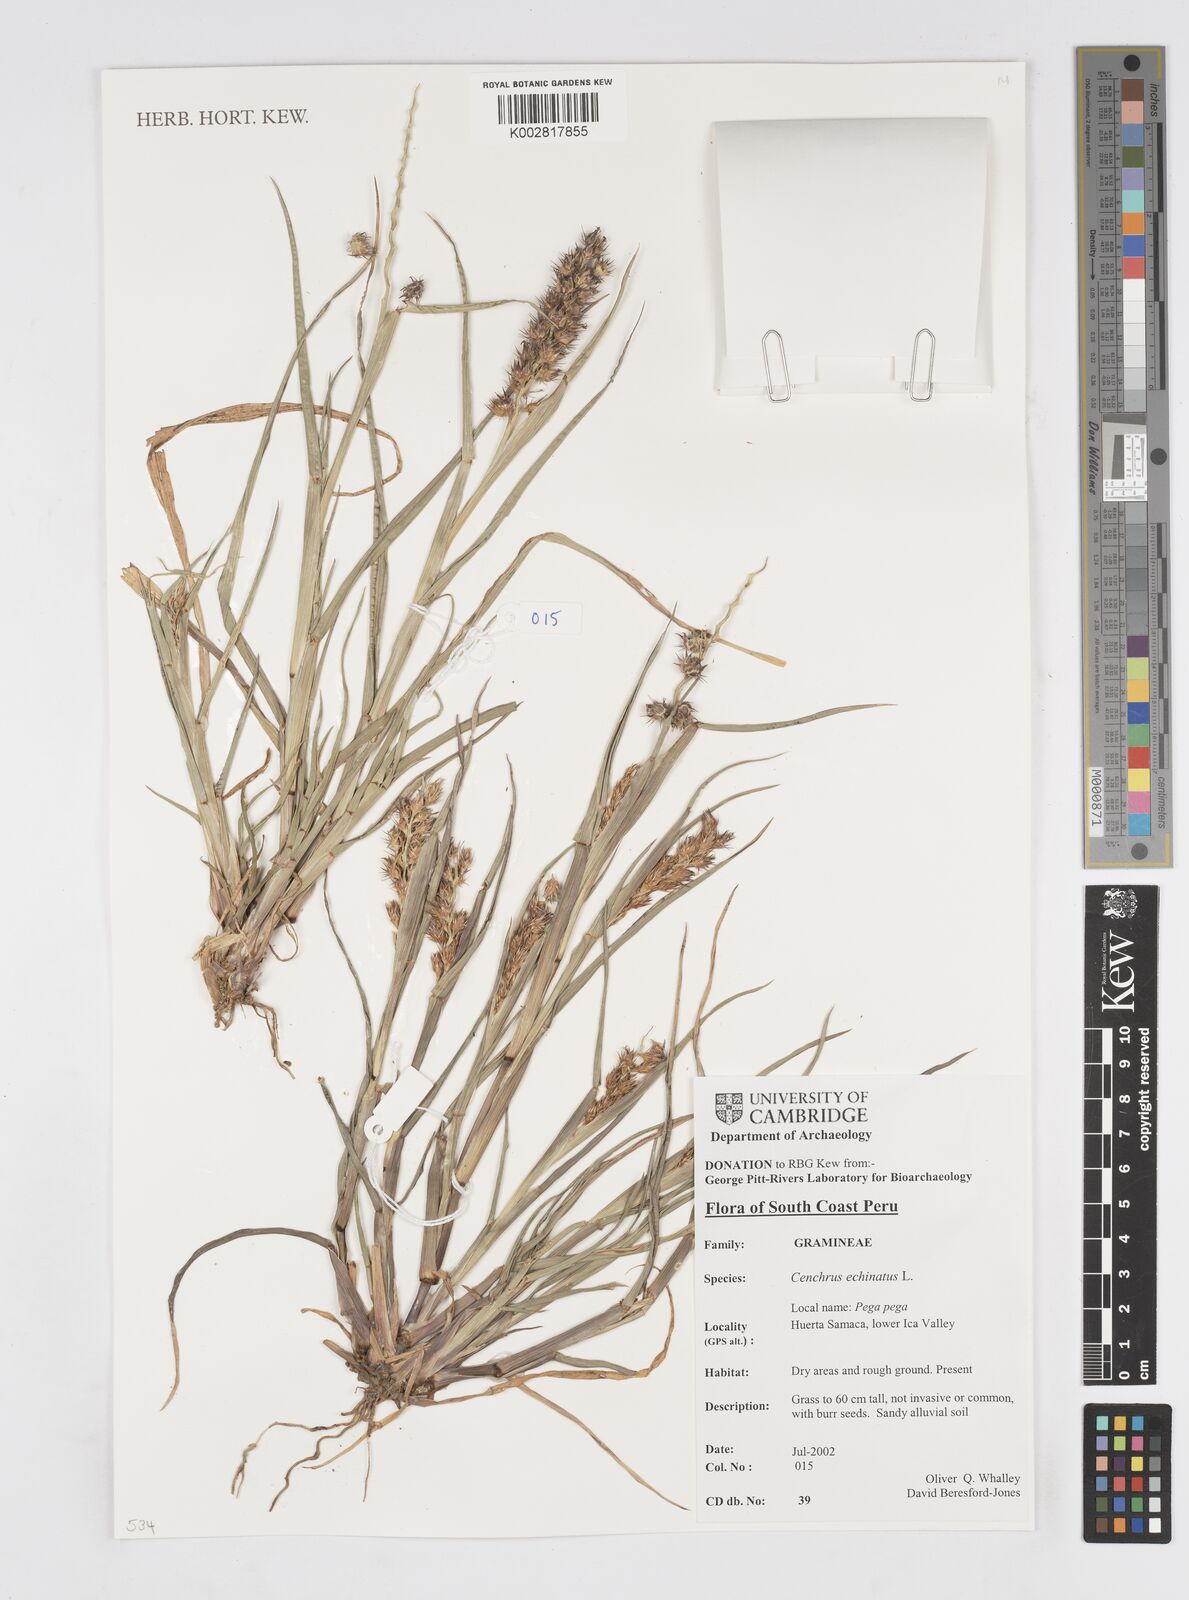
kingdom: Plantae
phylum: Tracheophyta
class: Liliopsida
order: Poales
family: Poaceae
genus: Cenchrus
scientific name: Cenchrus
